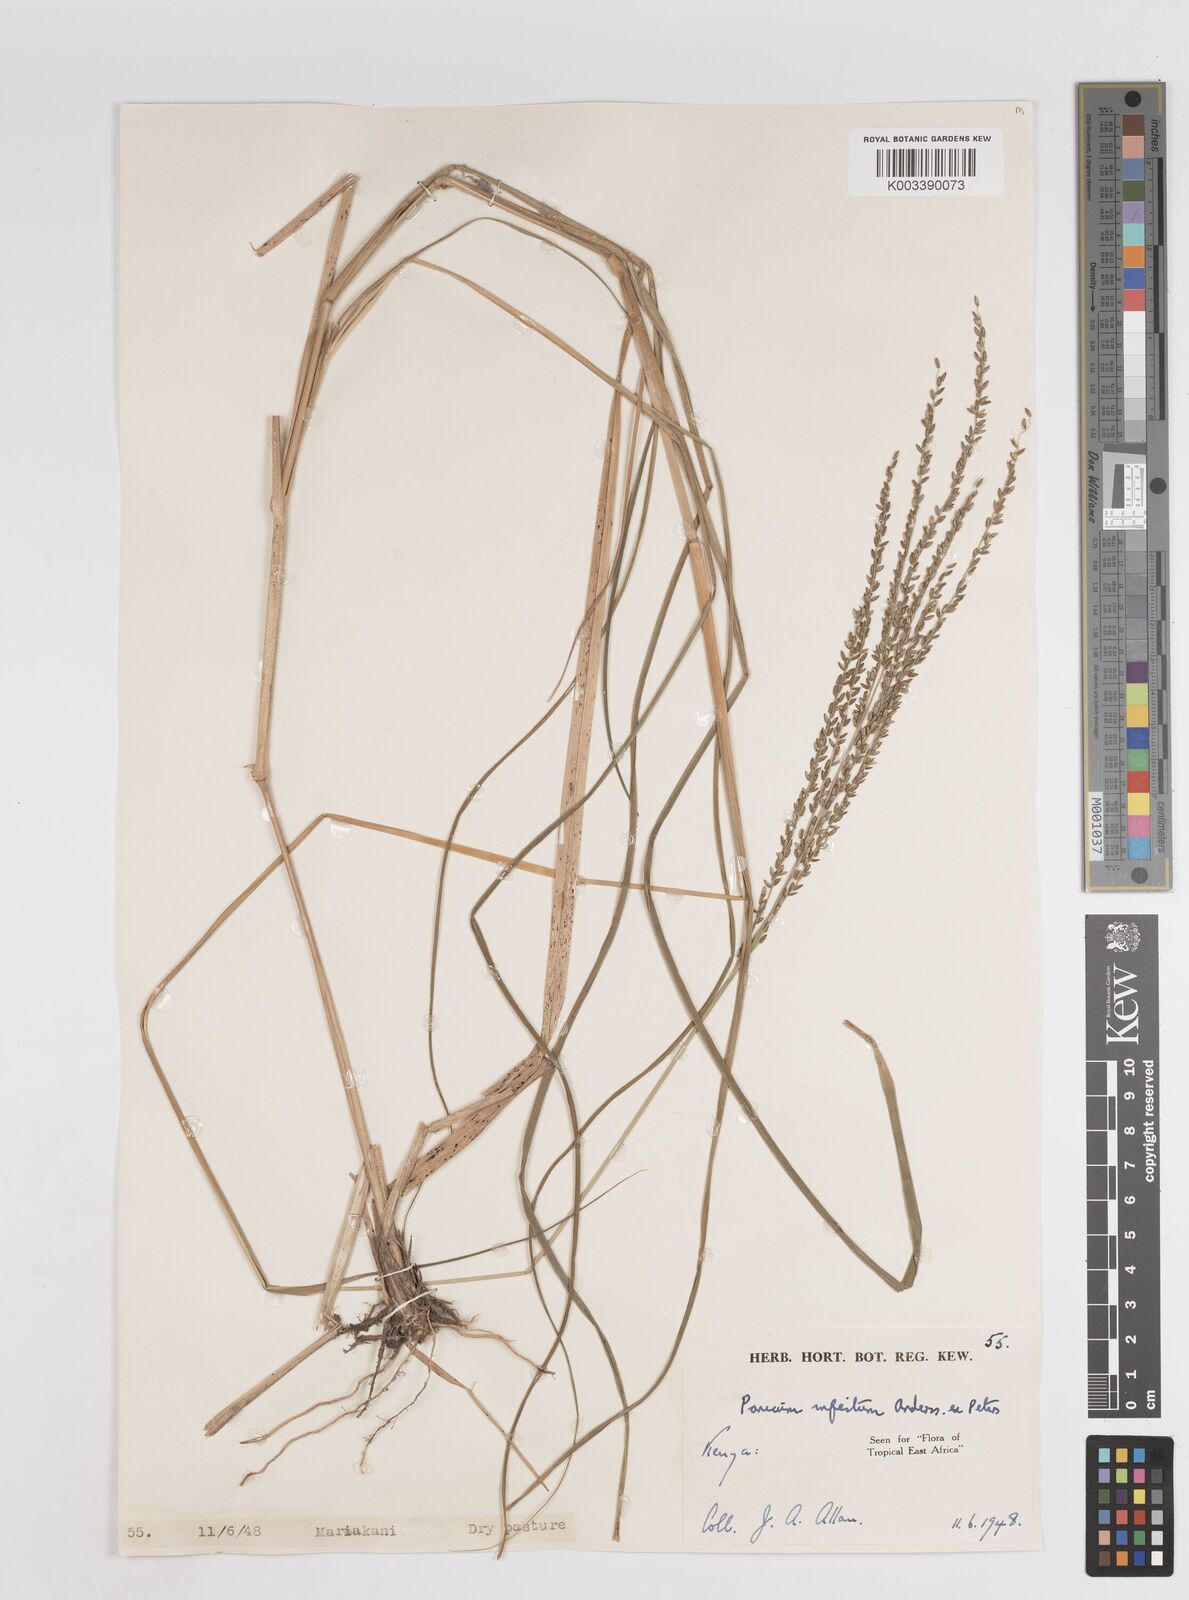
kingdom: Plantae
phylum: Tracheophyta
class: Liliopsida
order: Poales
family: Poaceae
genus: Megathyrsus
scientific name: Megathyrsus infestus
